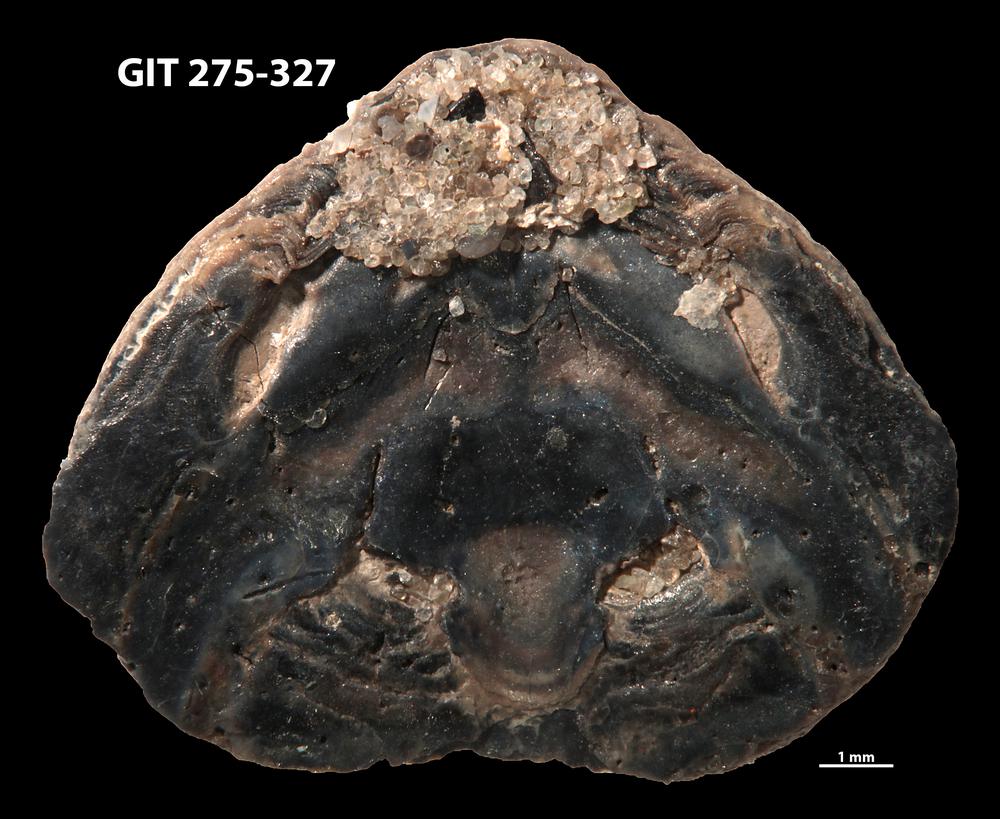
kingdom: Animalia
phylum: Brachiopoda
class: Lingulata
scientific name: Lingulata
